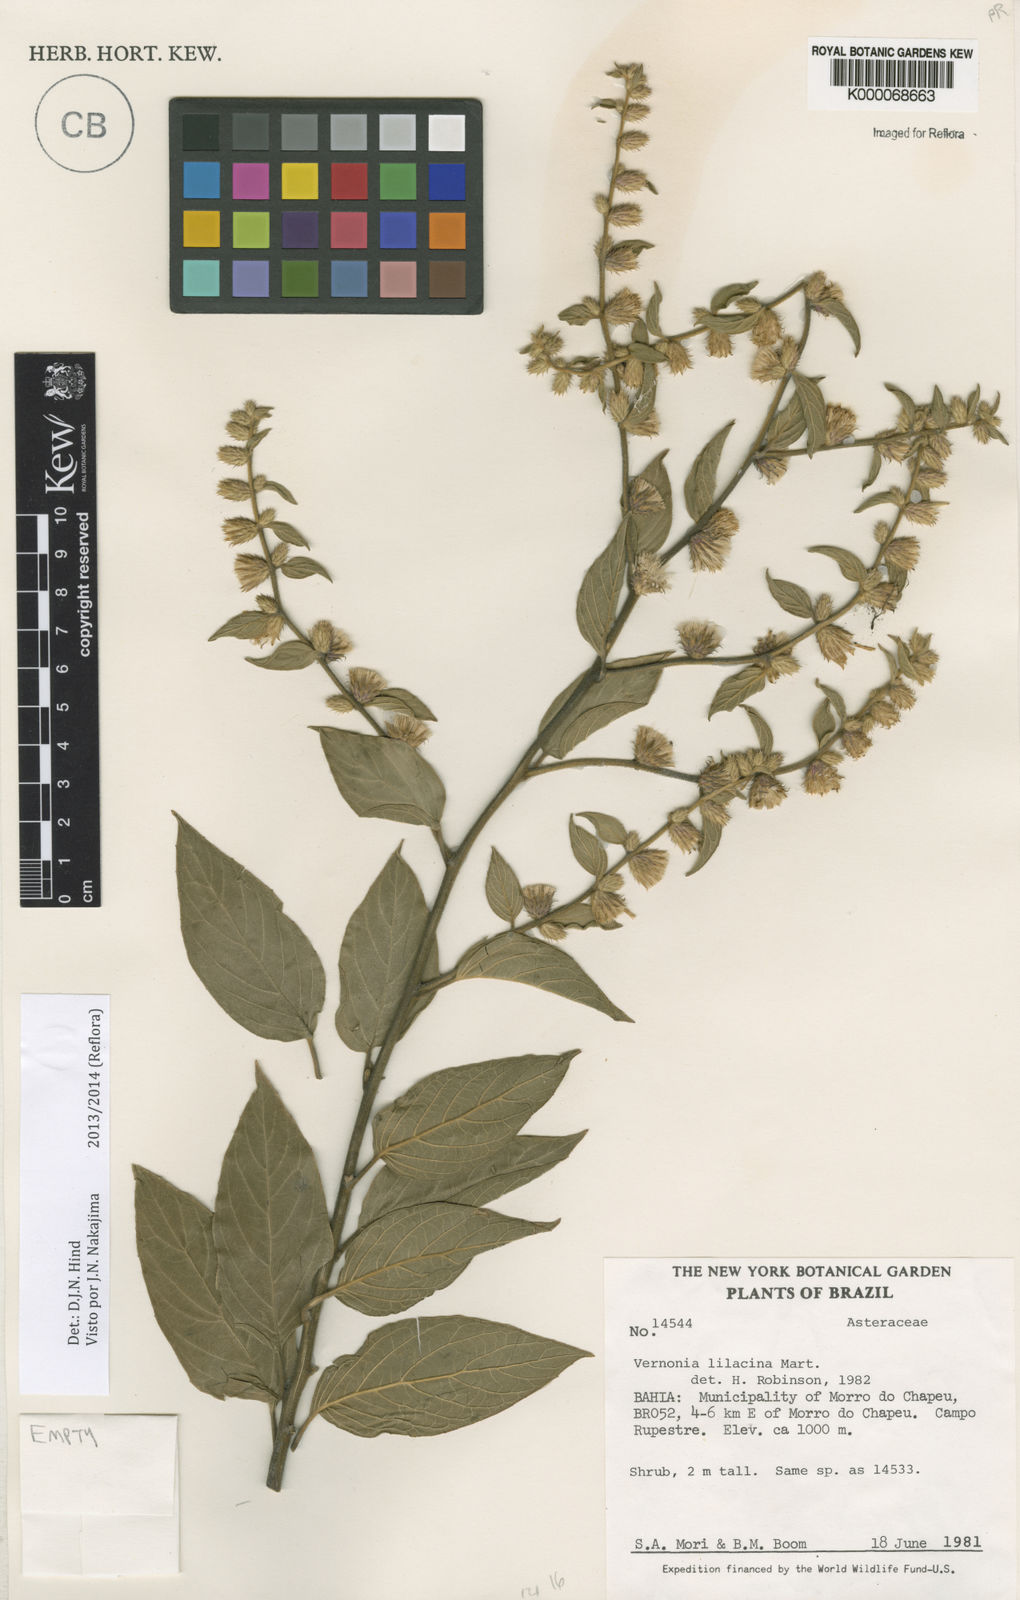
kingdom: Plantae
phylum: Tracheophyta
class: Magnoliopsida
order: Asterales
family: Asteraceae
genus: Lepidaploa
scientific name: Lepidaploa lilacina
